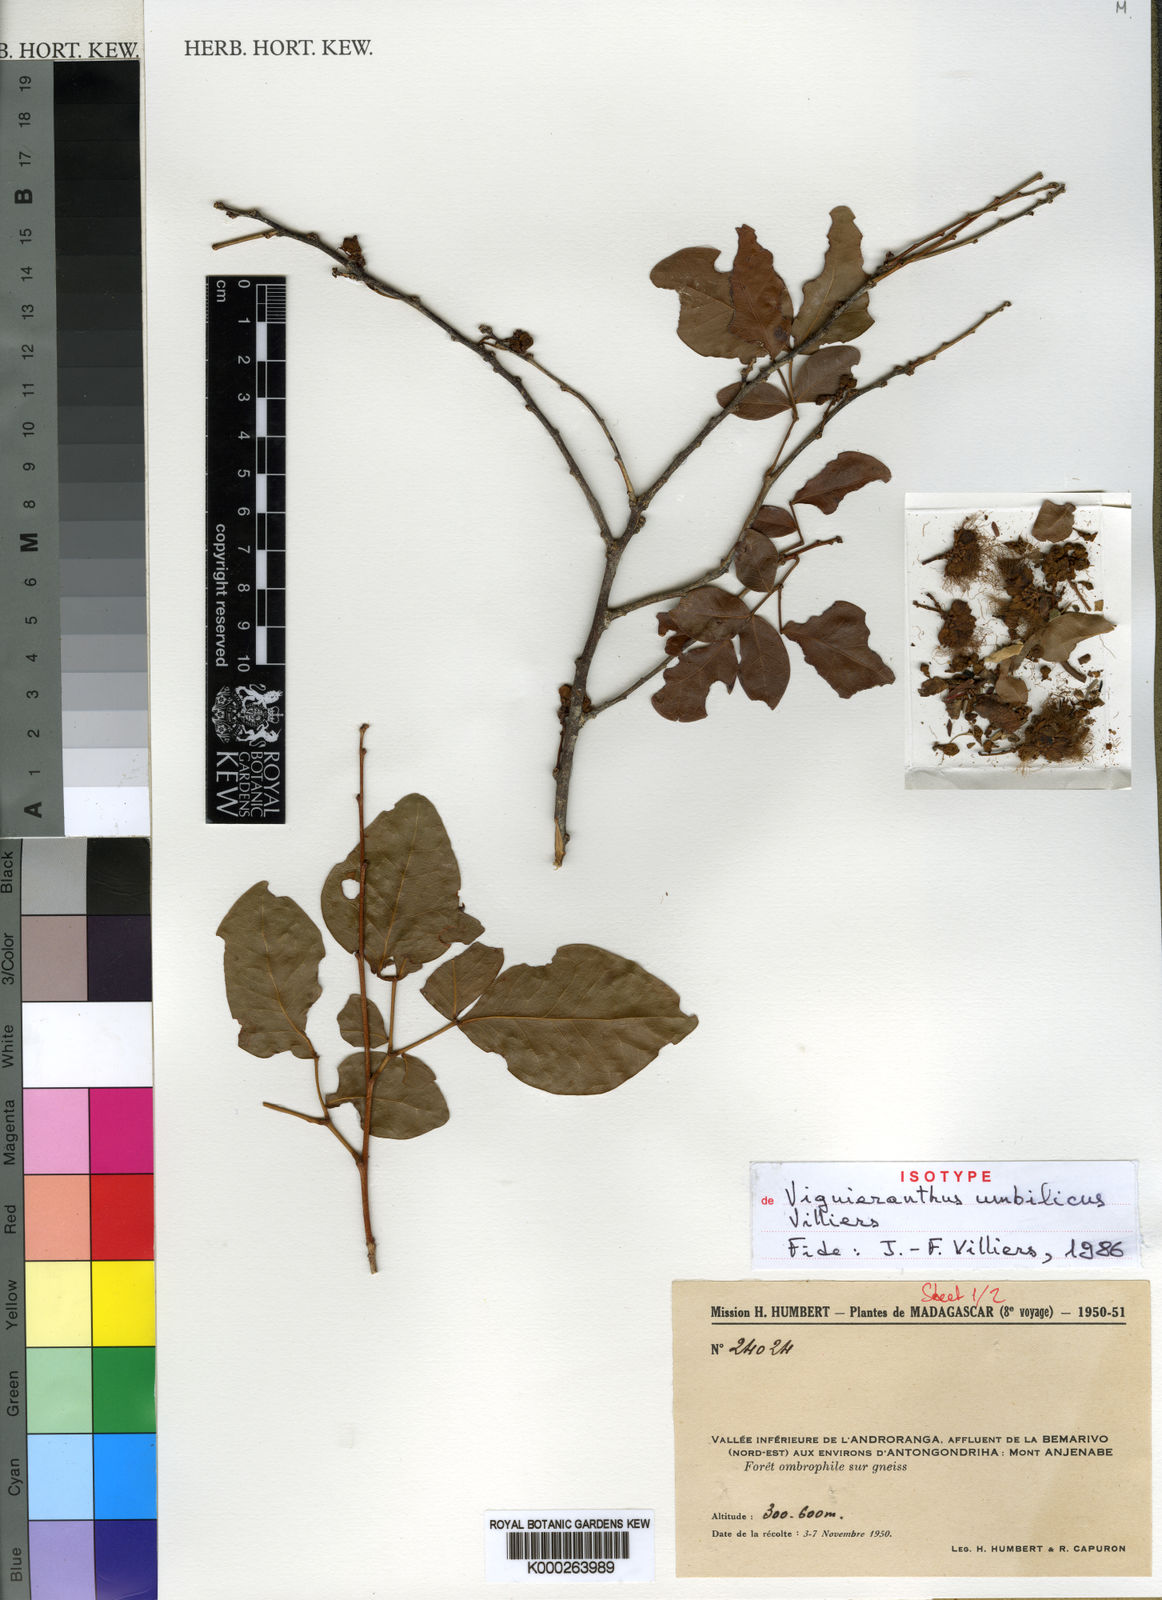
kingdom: Plantae
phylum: Tracheophyta
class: Magnoliopsida
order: Fabales
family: Fabaceae
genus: Viguieranthus
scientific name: Viguieranthus umbilicus
